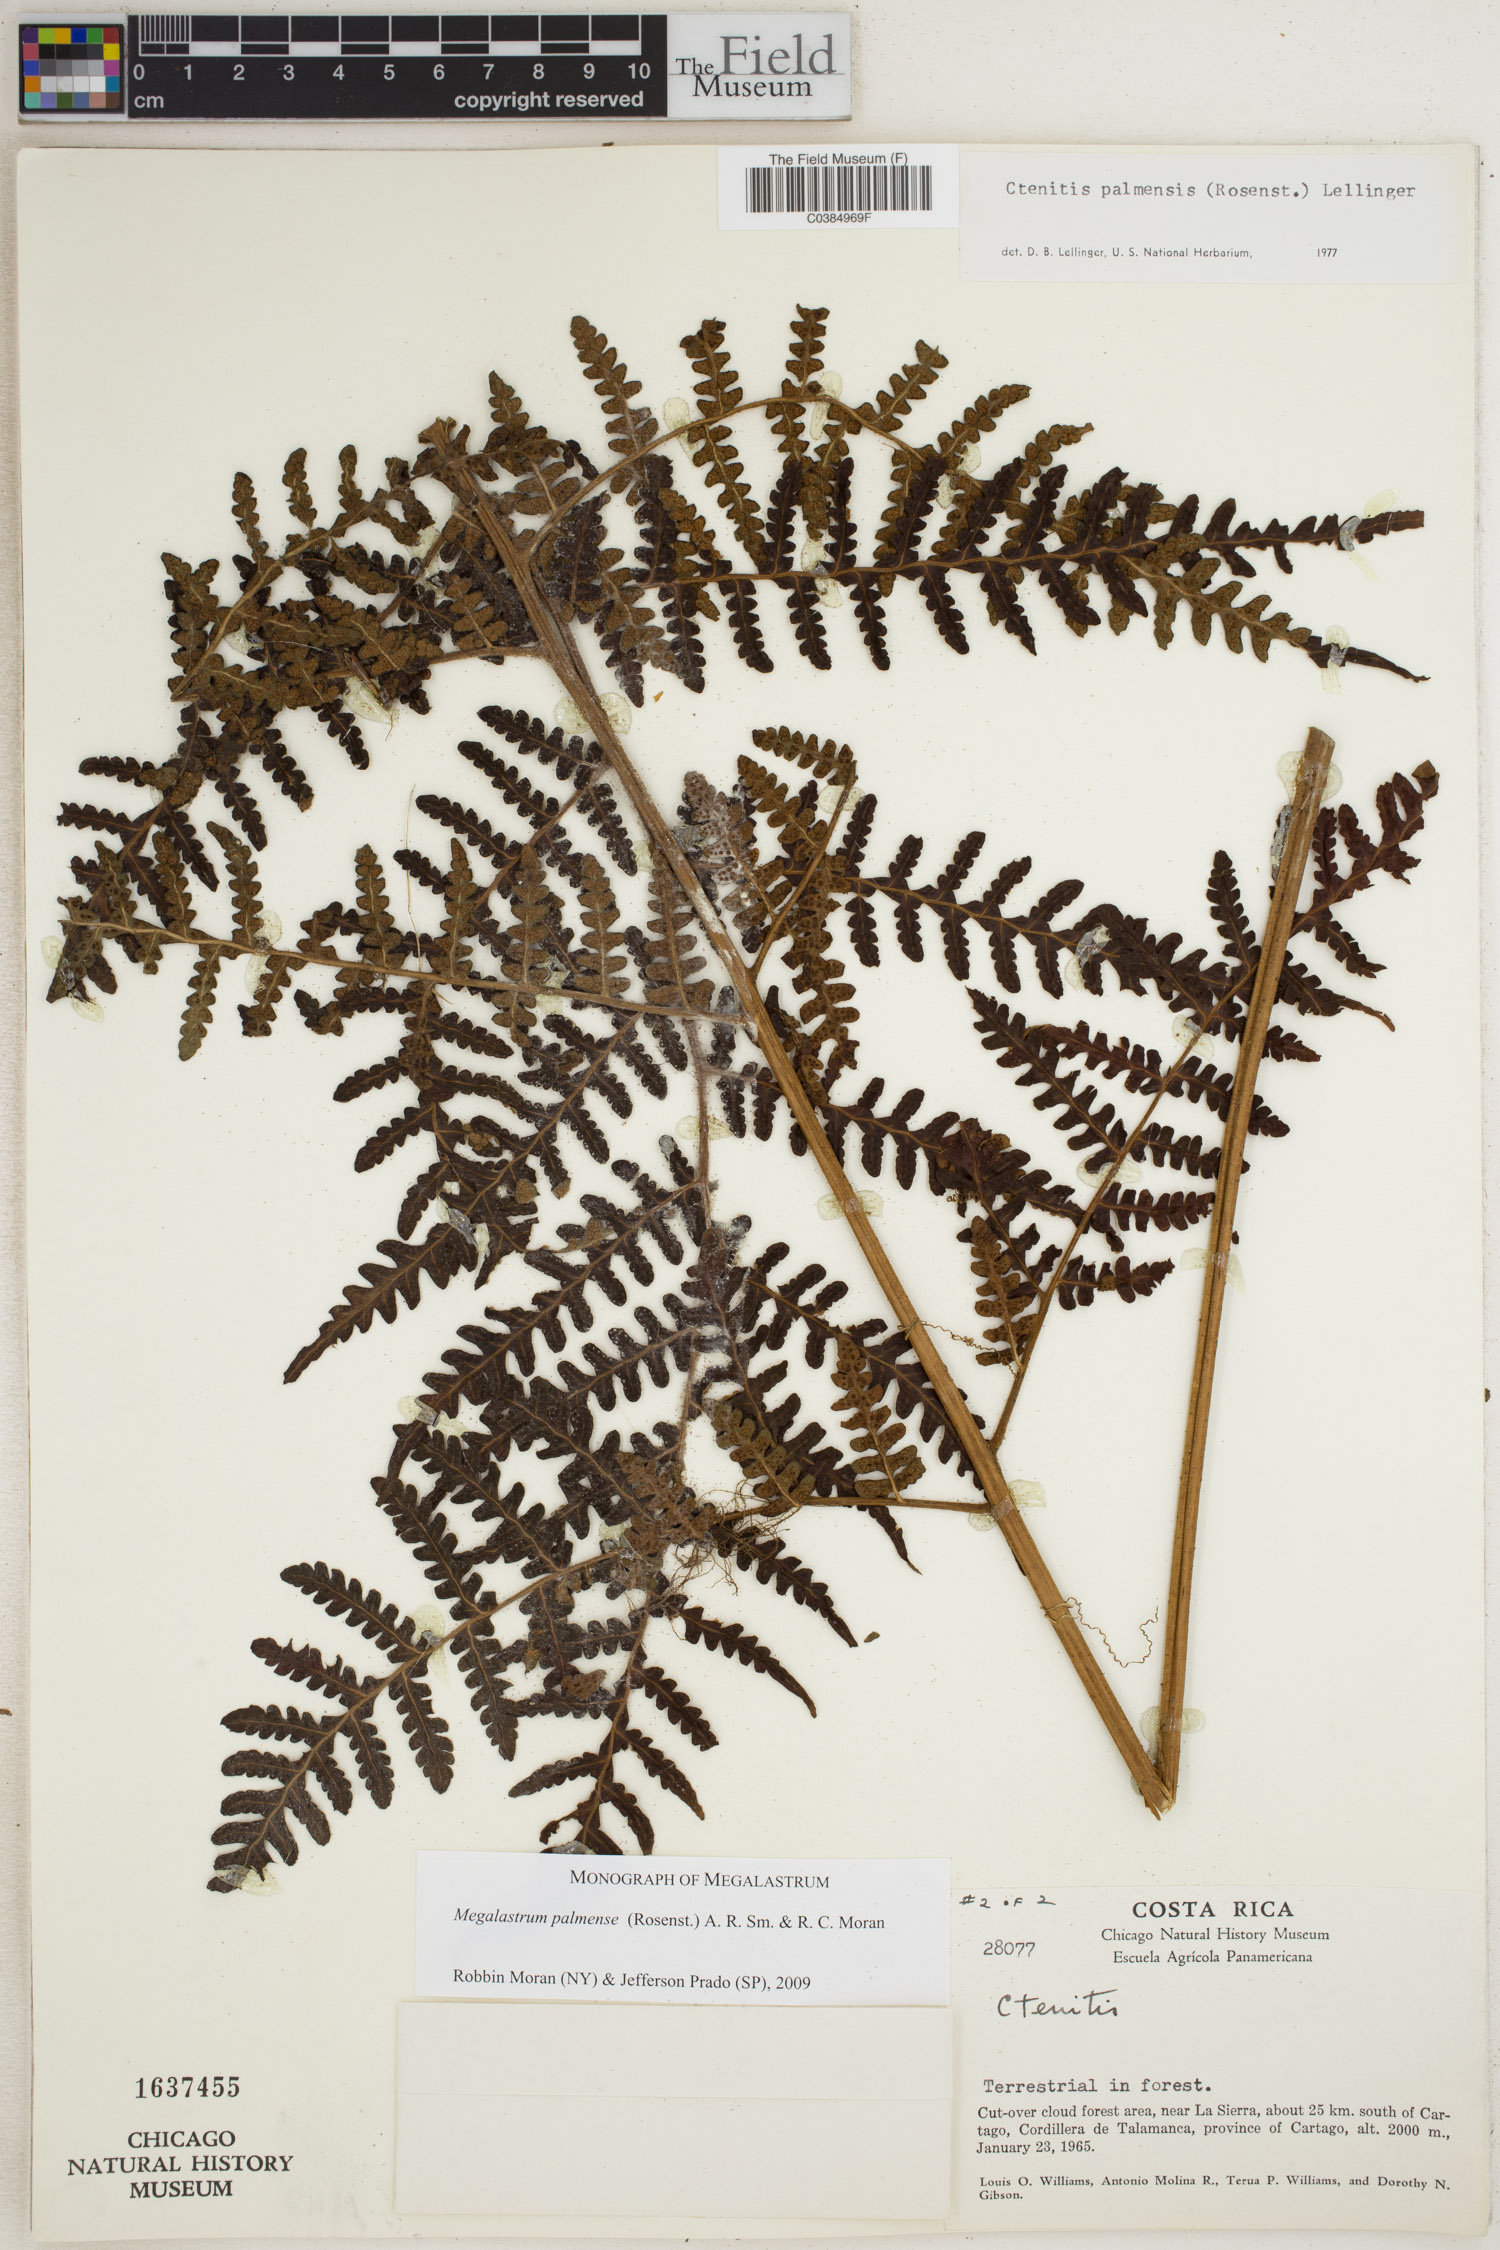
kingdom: Plantae
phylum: Tracheophyta
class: Polypodiopsida
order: Polypodiales
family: Dryopteridaceae
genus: Megalastrum
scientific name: Megalastrum palmense
